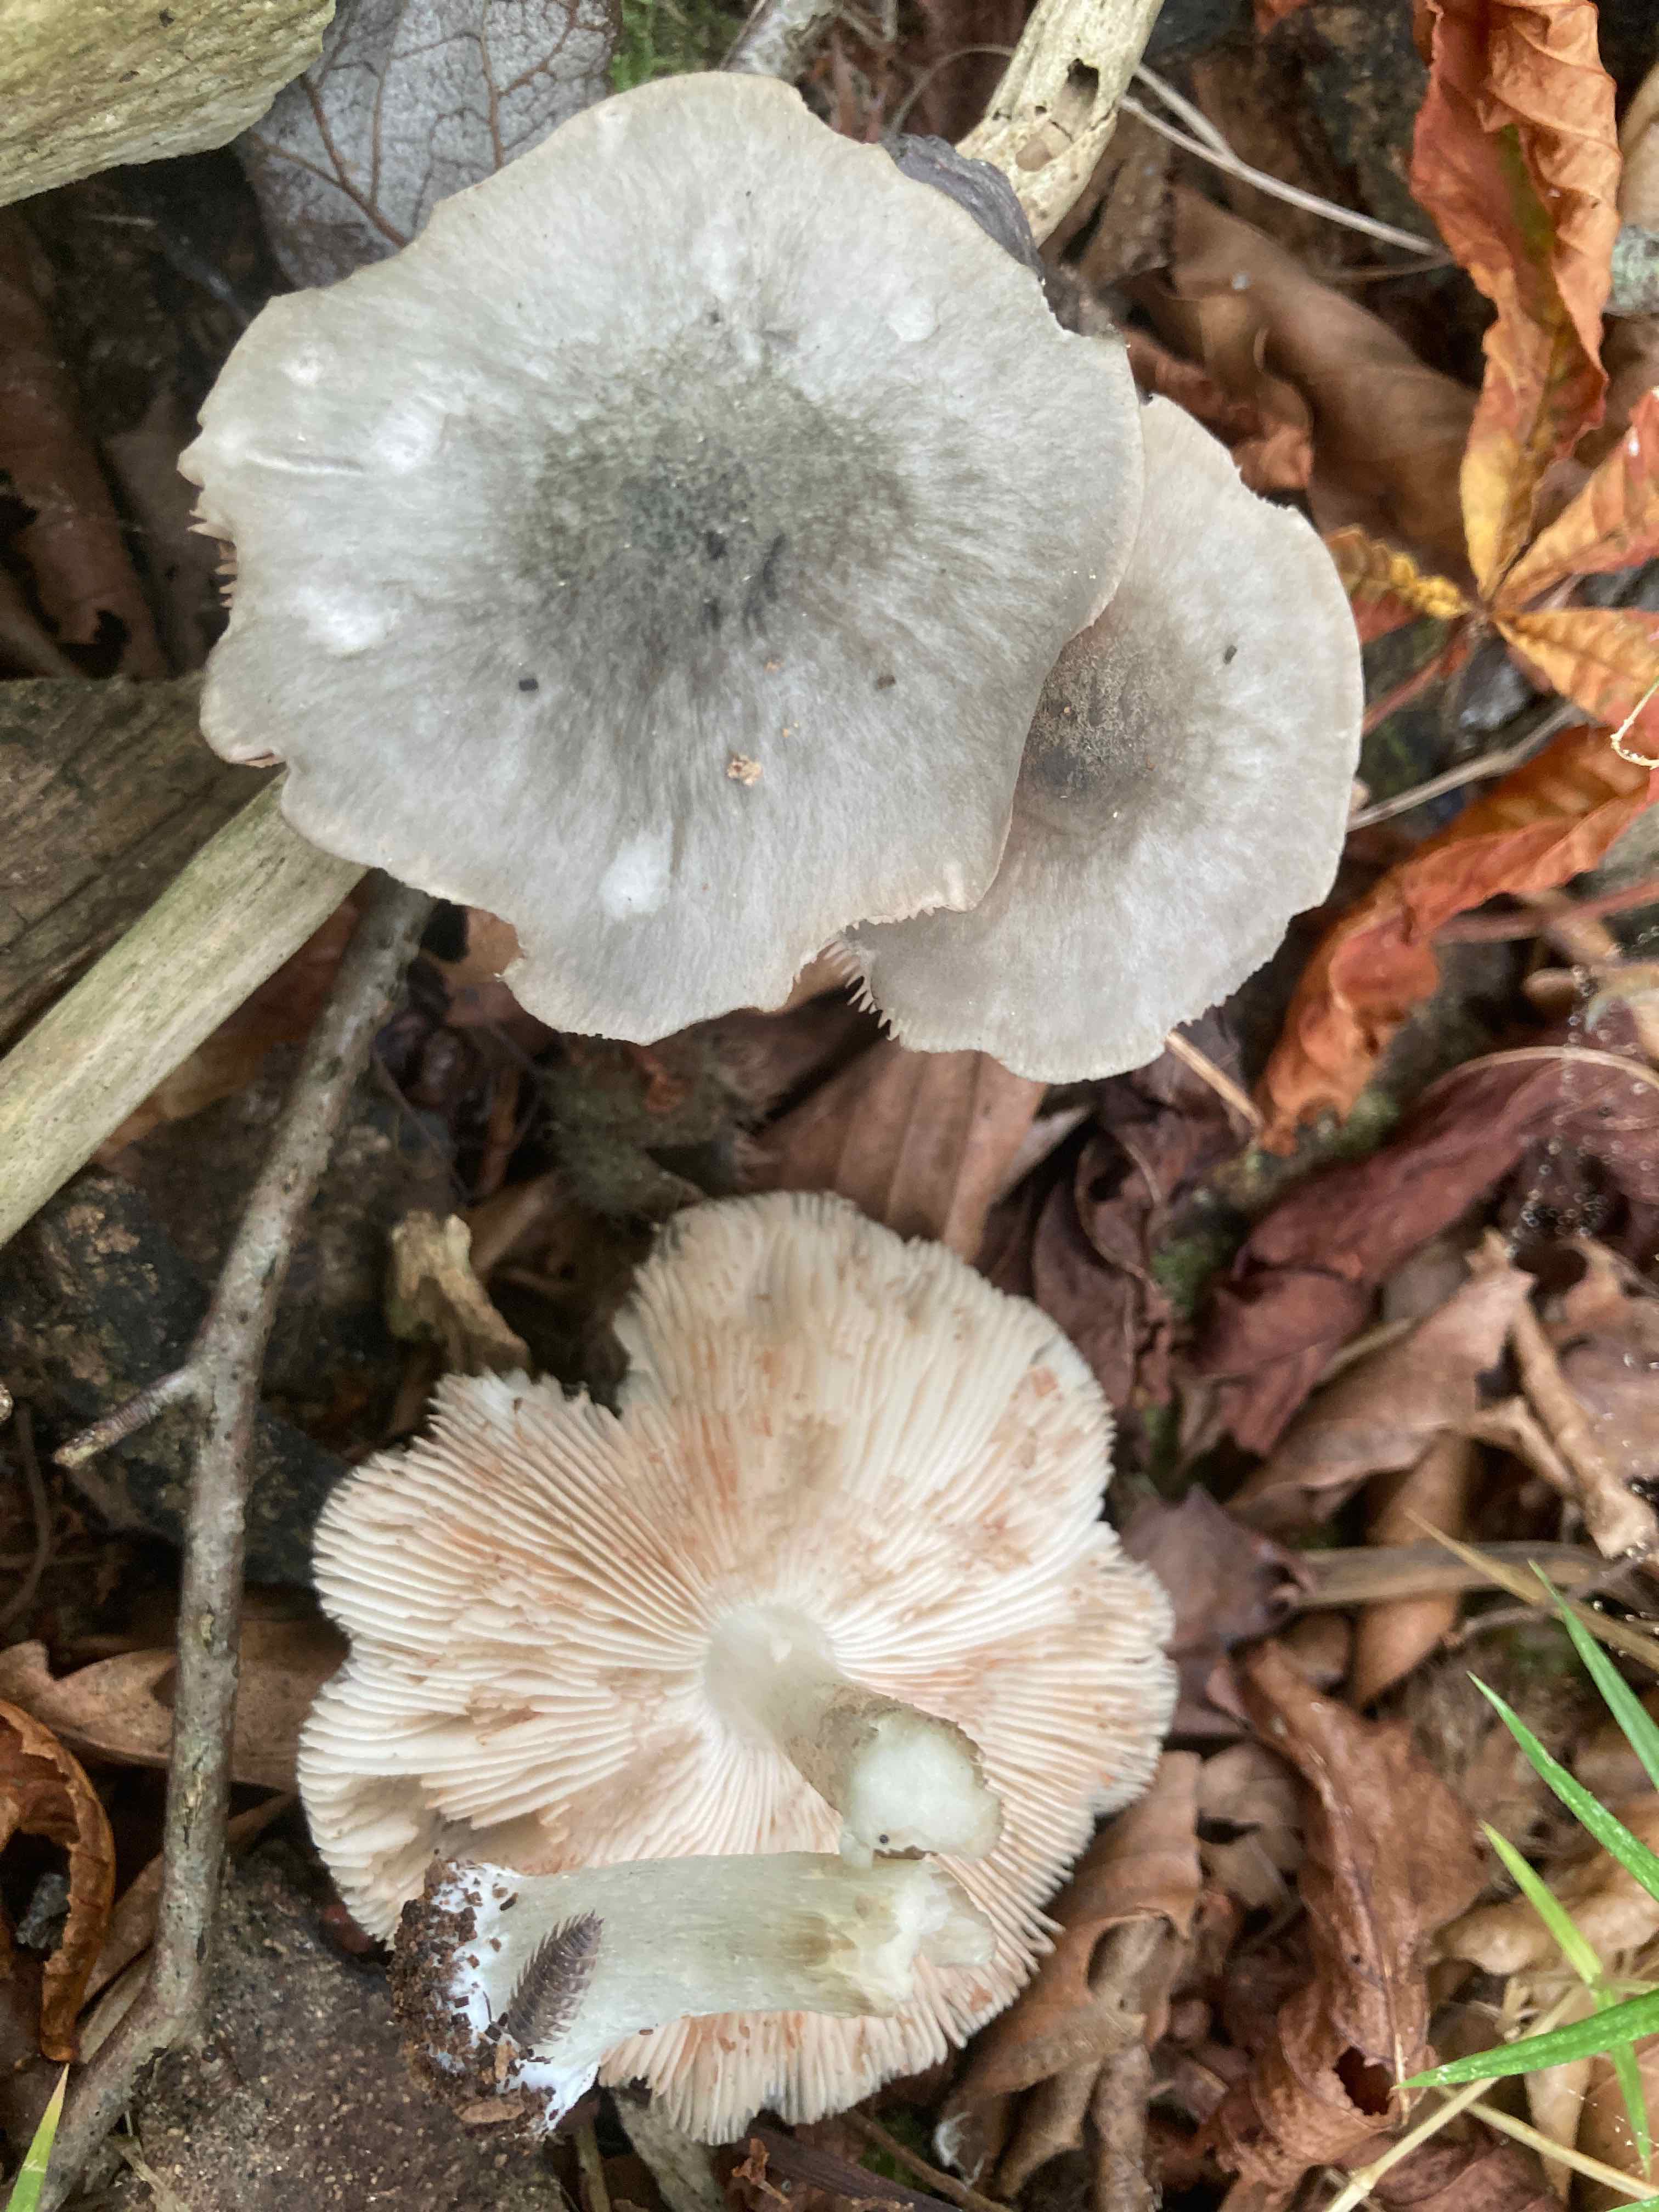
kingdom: Fungi
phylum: Basidiomycota
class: Agaricomycetes
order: Agaricales
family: Pluteaceae
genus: Pluteus
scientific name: Pluteus salicinus
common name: stiv skærmhat
